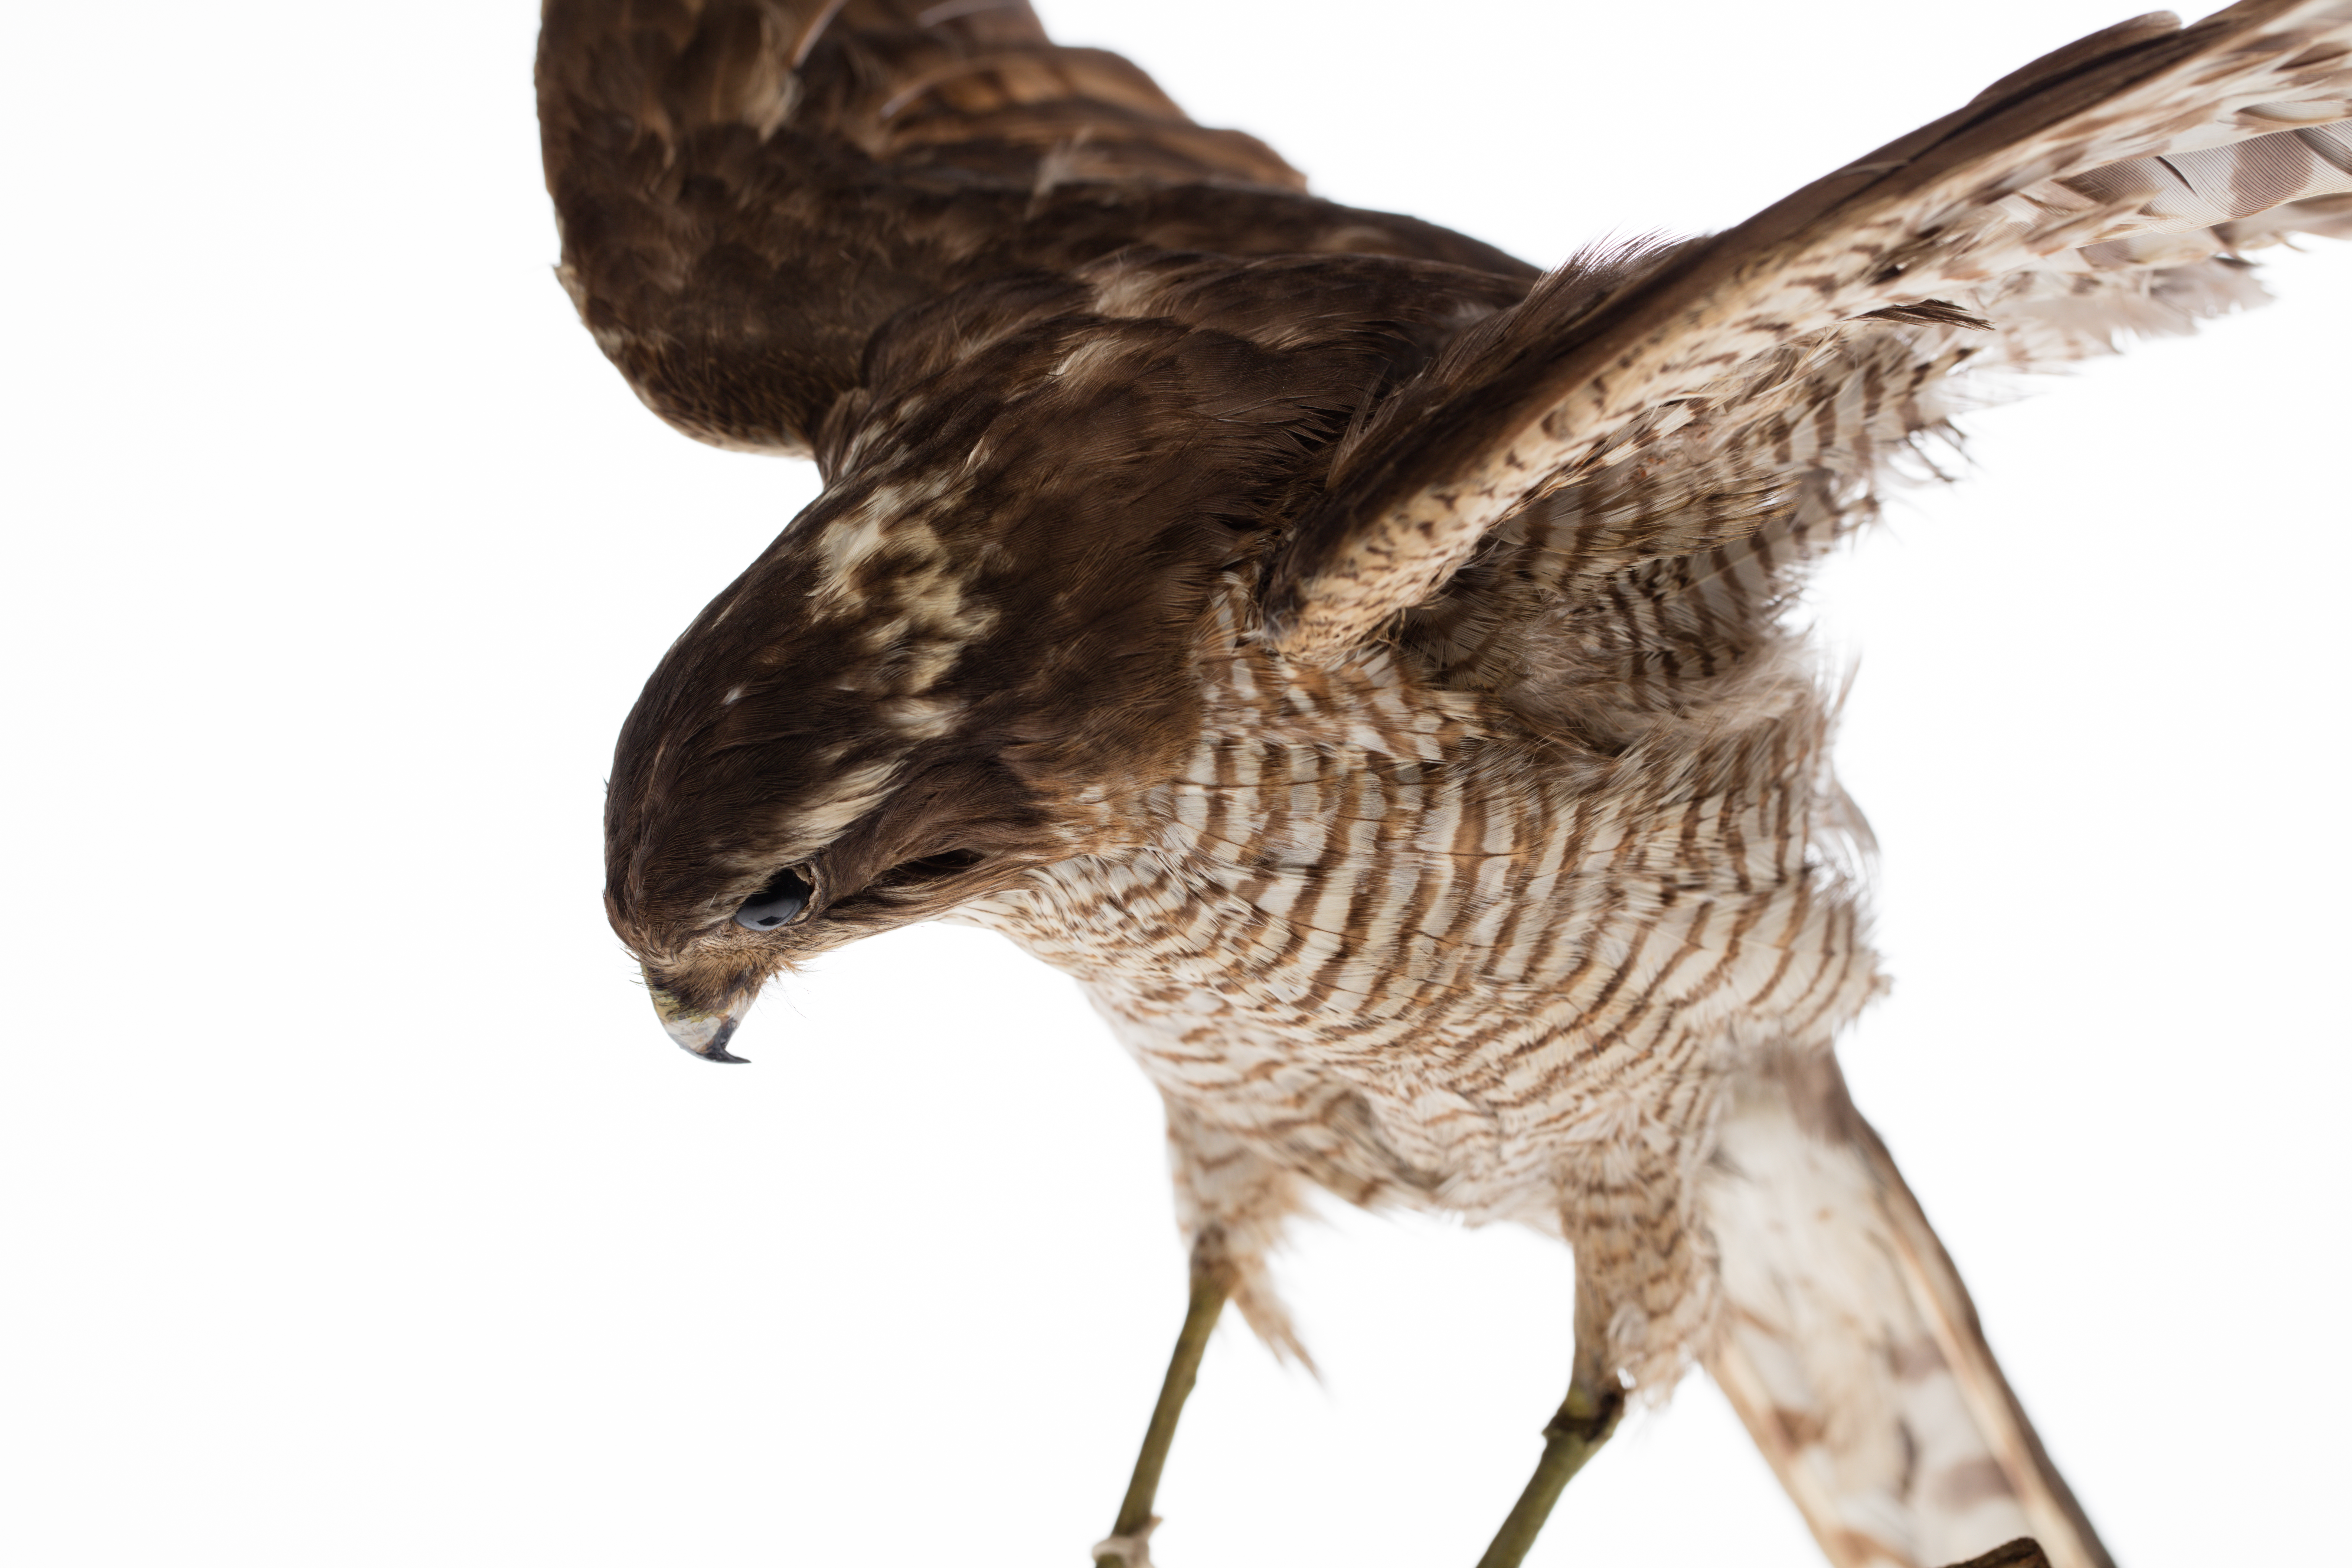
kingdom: Animalia
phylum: Chordata
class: Aves
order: Accipitriformes
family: Accipitridae
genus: Accipiter
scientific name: Accipiter nisus
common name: Eurasian sparrowhawk
